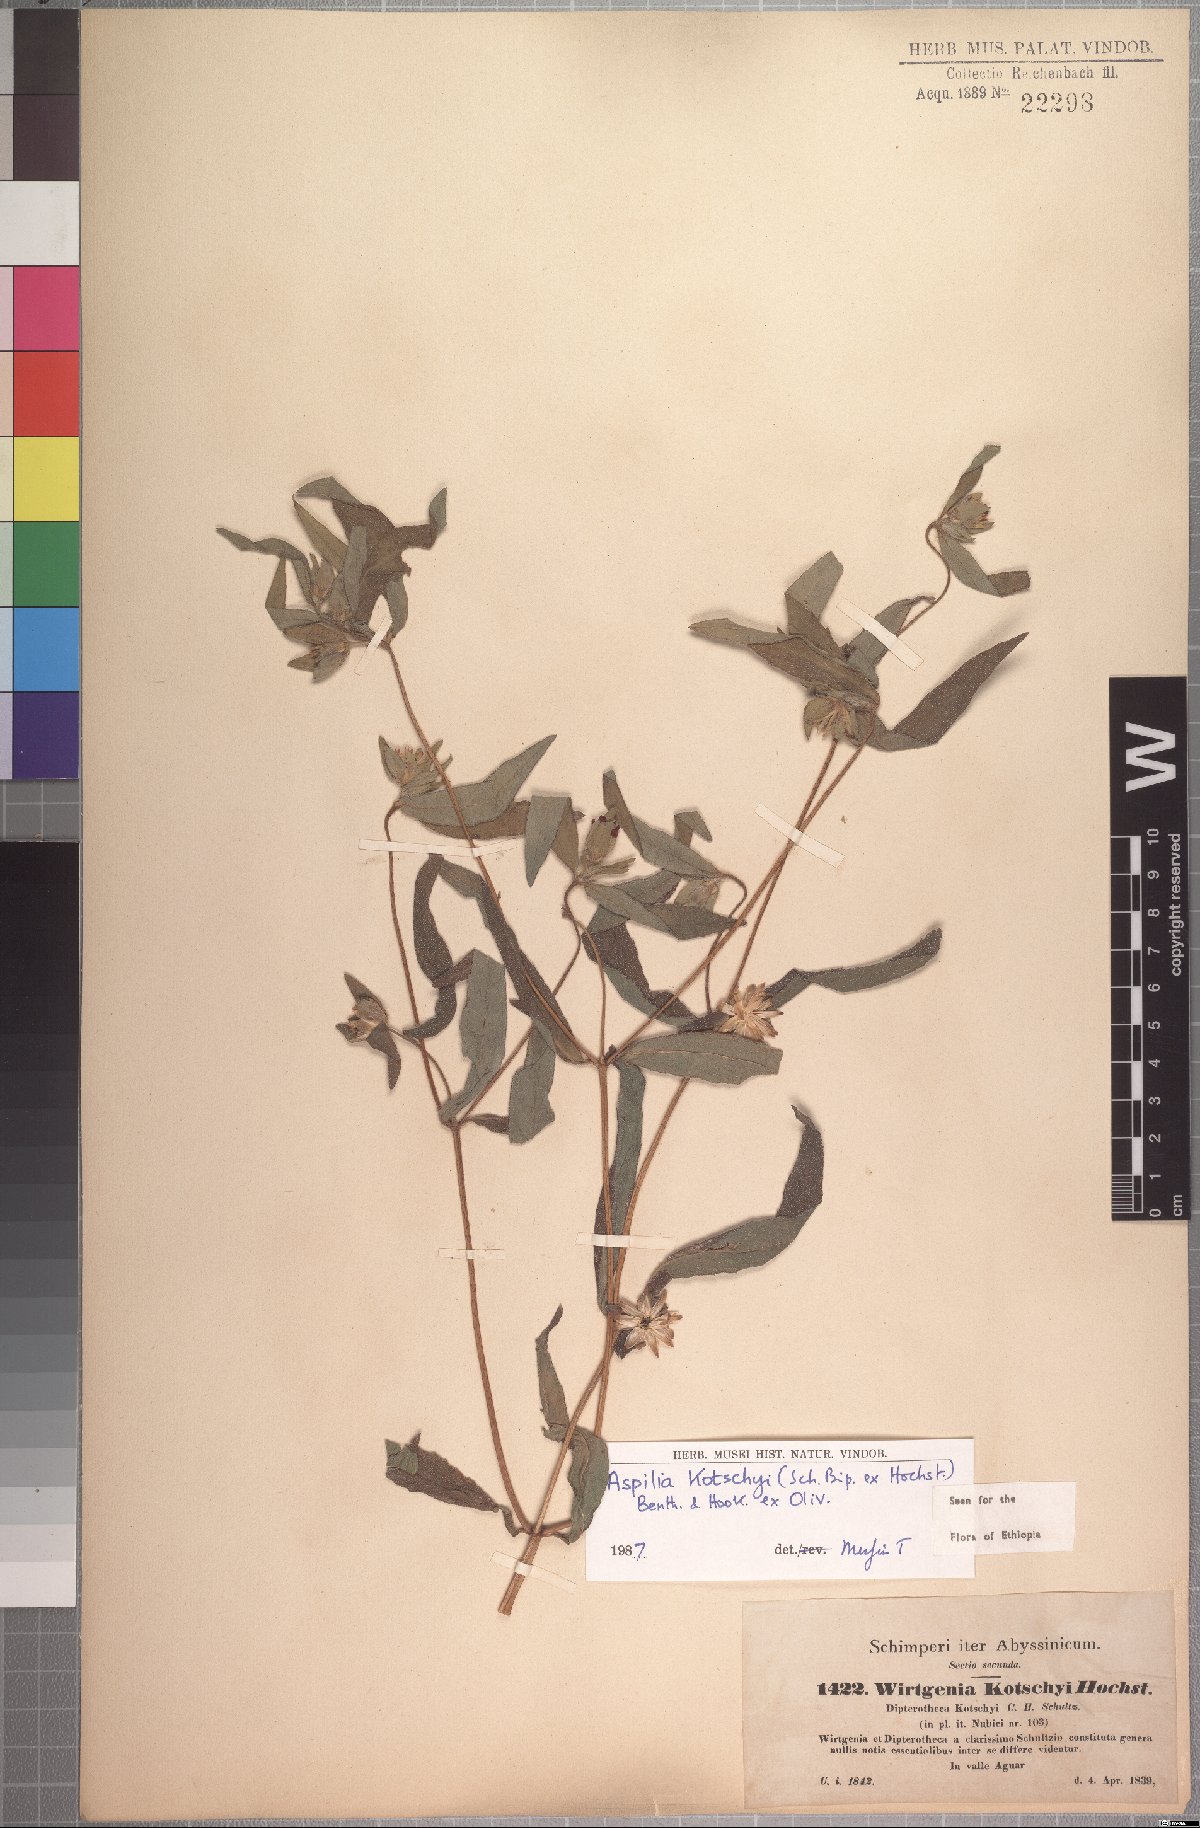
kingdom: Plantae
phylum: Tracheophyta
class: Magnoliopsida
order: Asterales
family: Asteraceae
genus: Aspilia
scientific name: Aspilia kotschyi
